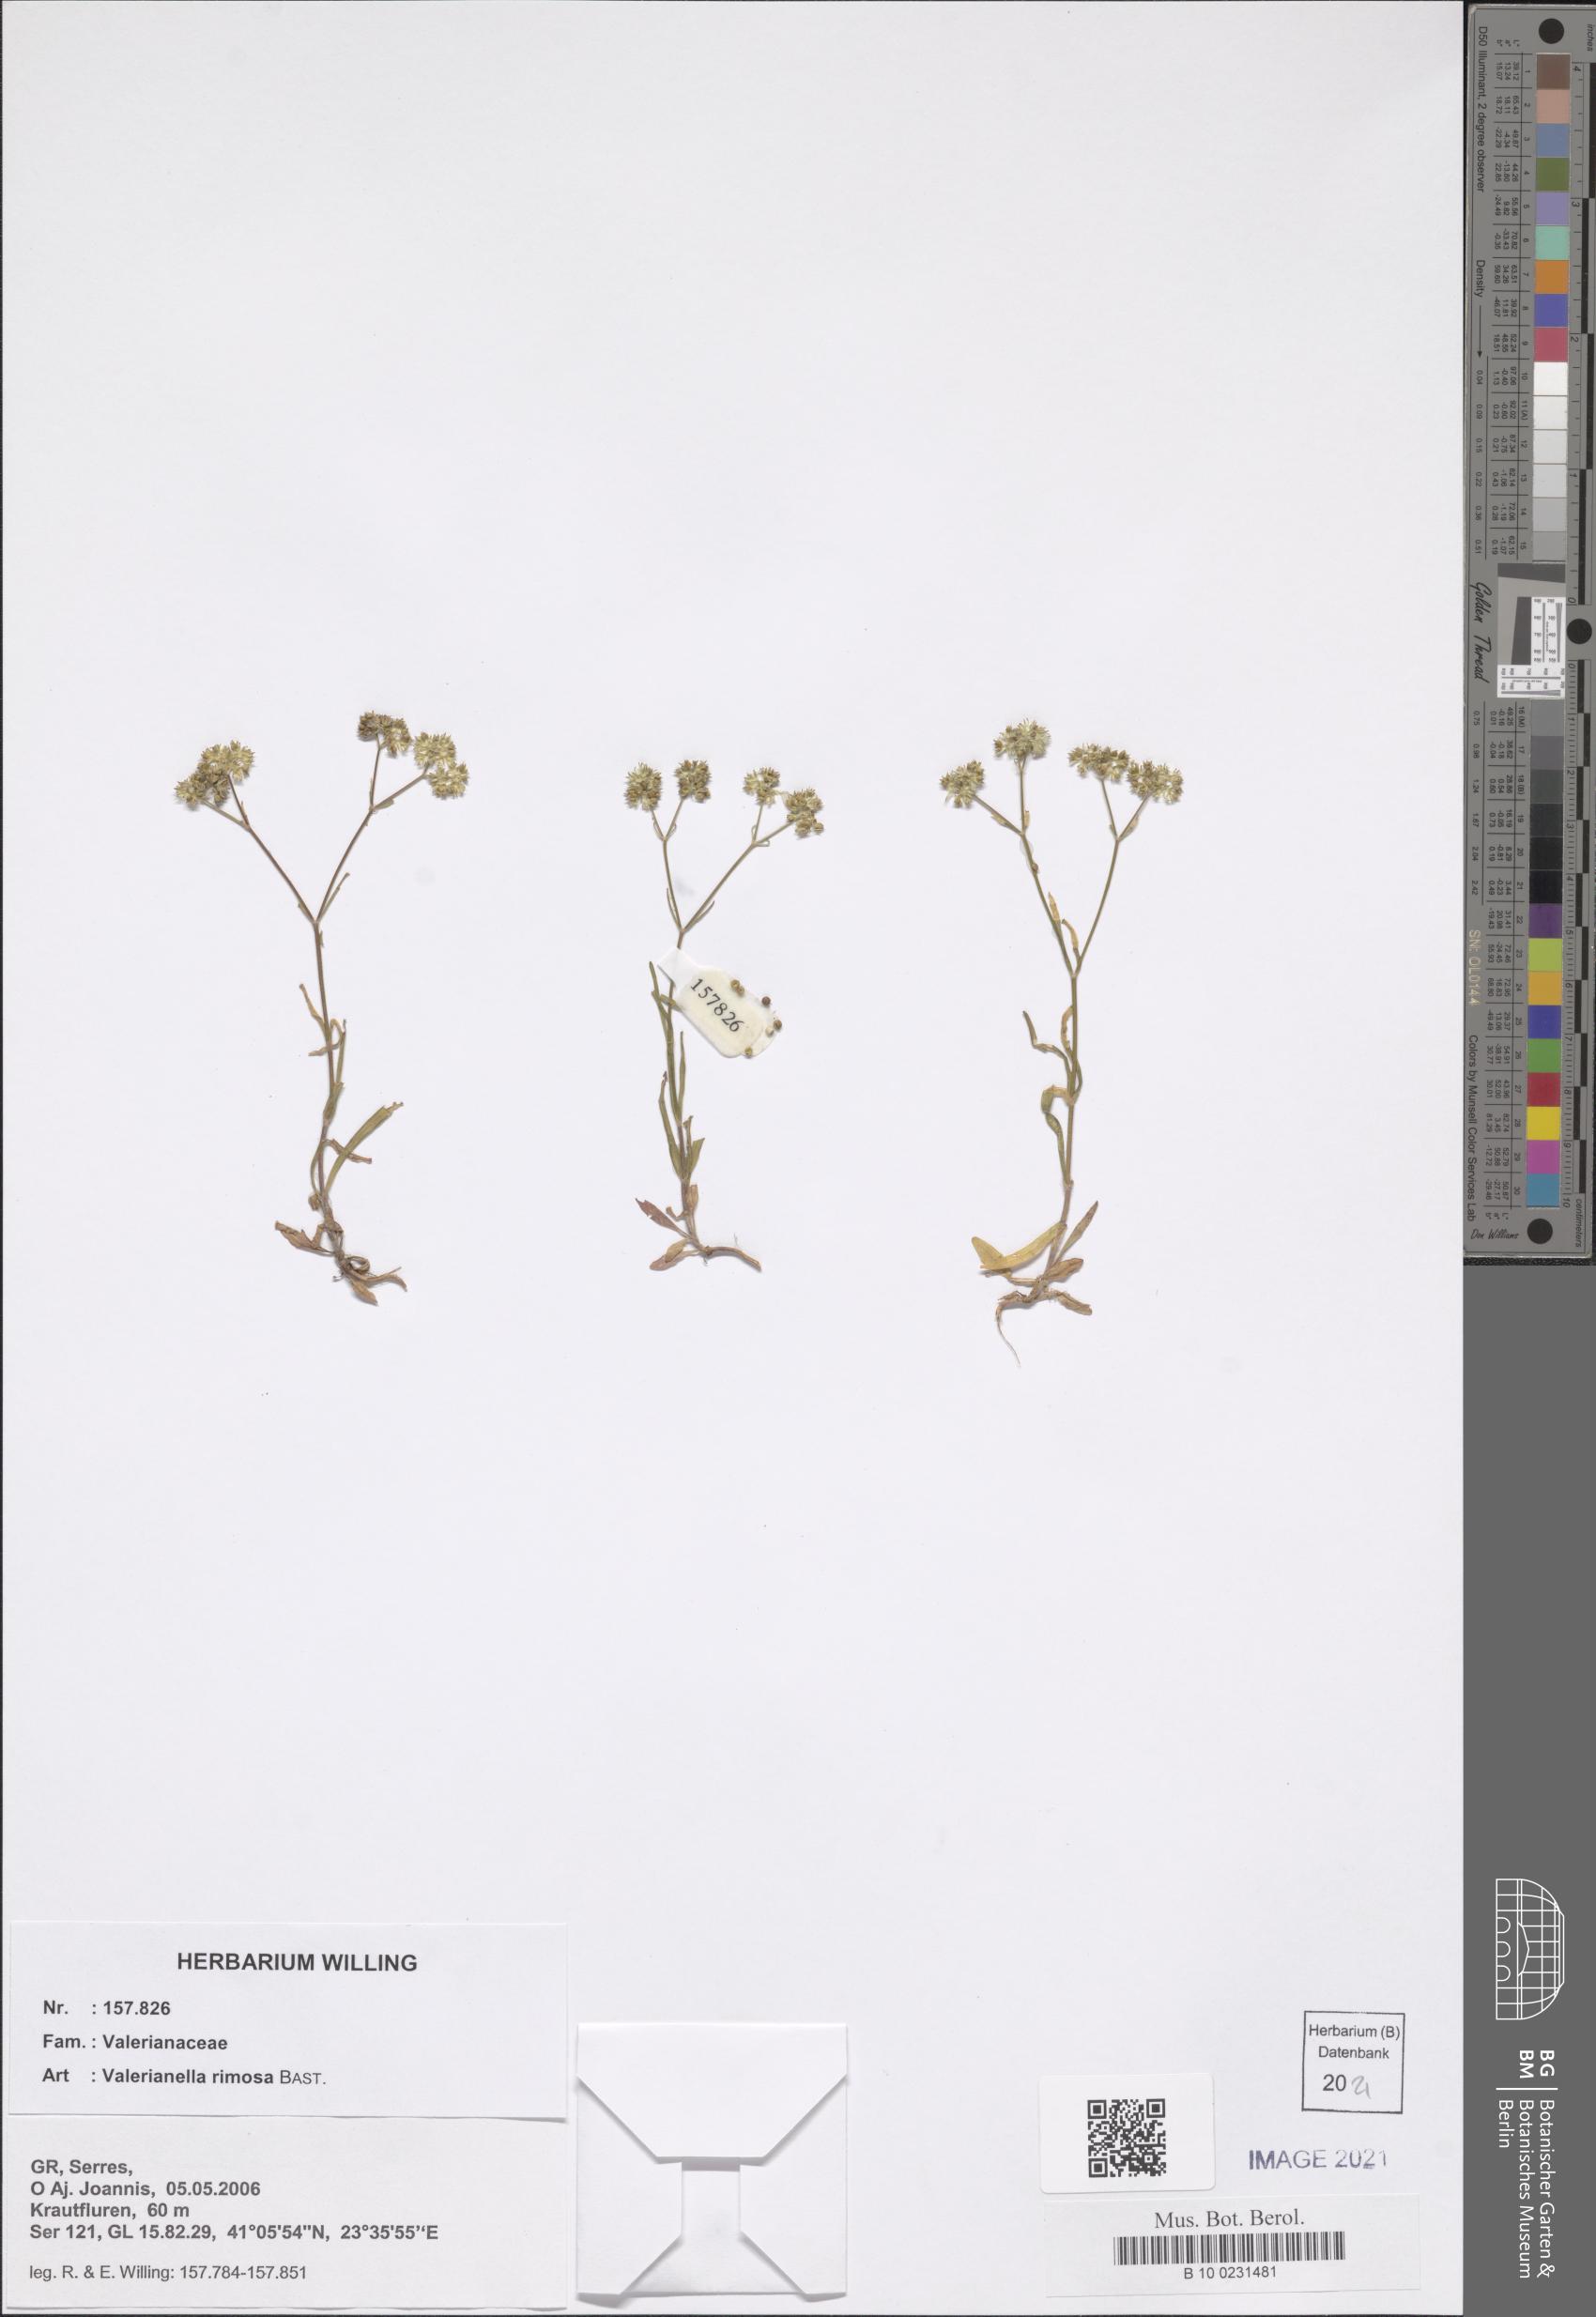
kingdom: Plantae
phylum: Tracheophyta
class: Magnoliopsida
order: Dipsacales
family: Caprifoliaceae
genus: Valerianella
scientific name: Valerianella rimosa
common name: Broad-fruited cornsalad
